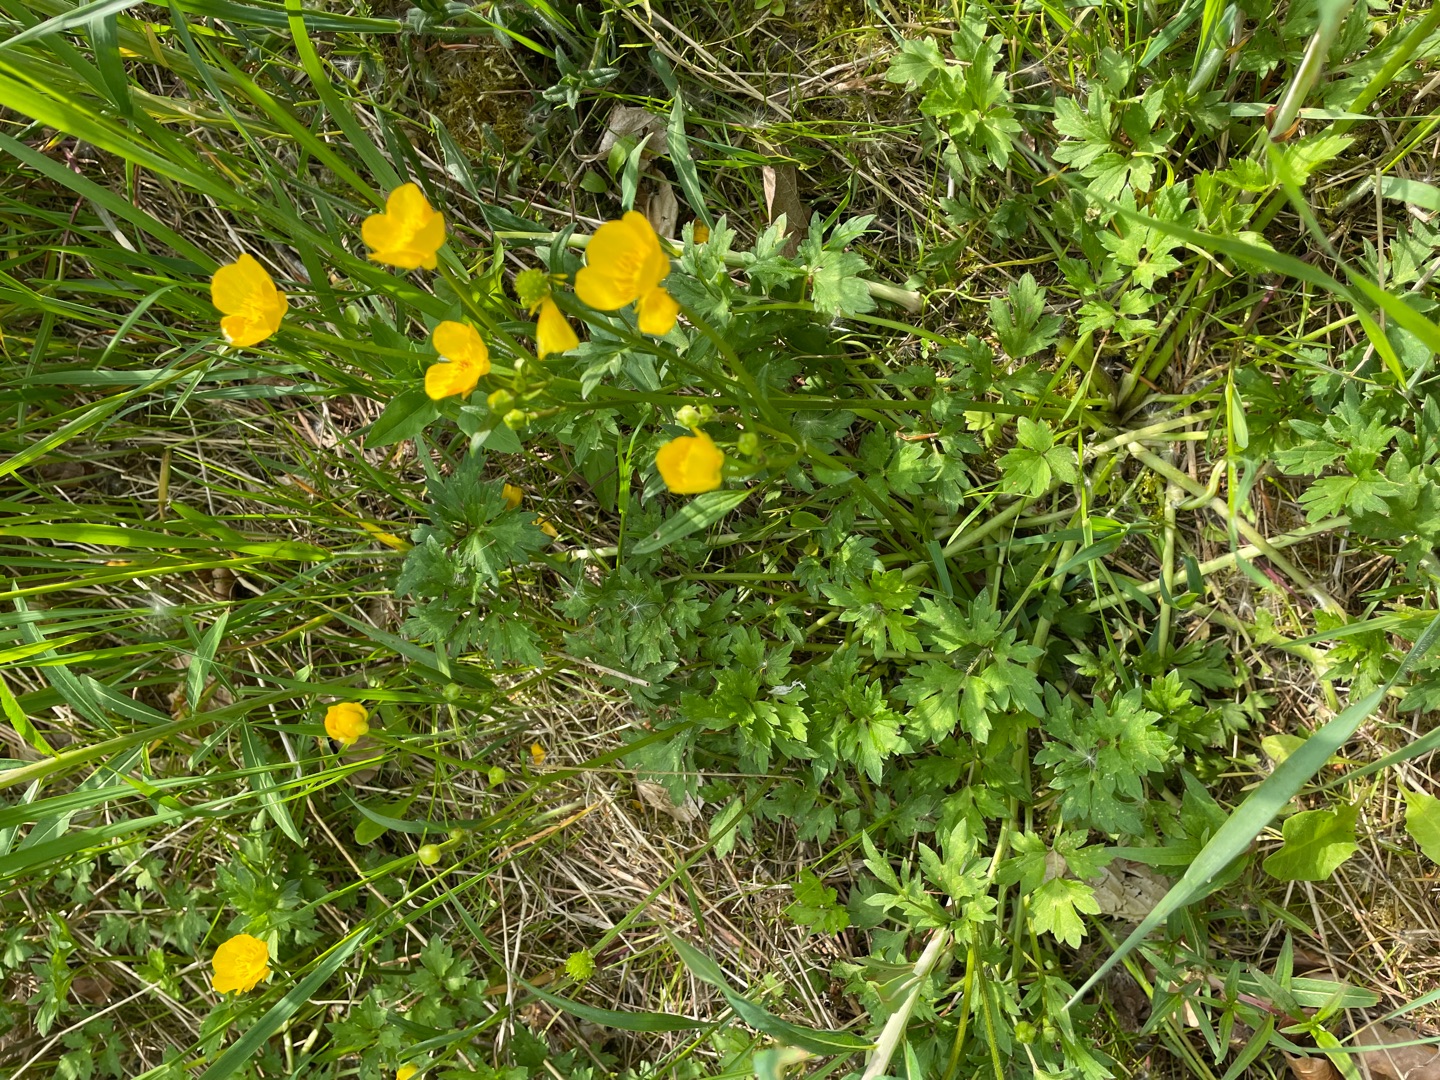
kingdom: Plantae
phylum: Tracheophyta
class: Magnoliopsida
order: Ranunculales
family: Ranunculaceae
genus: Ranunculus
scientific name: Ranunculus repens
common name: Lav ranunkel
